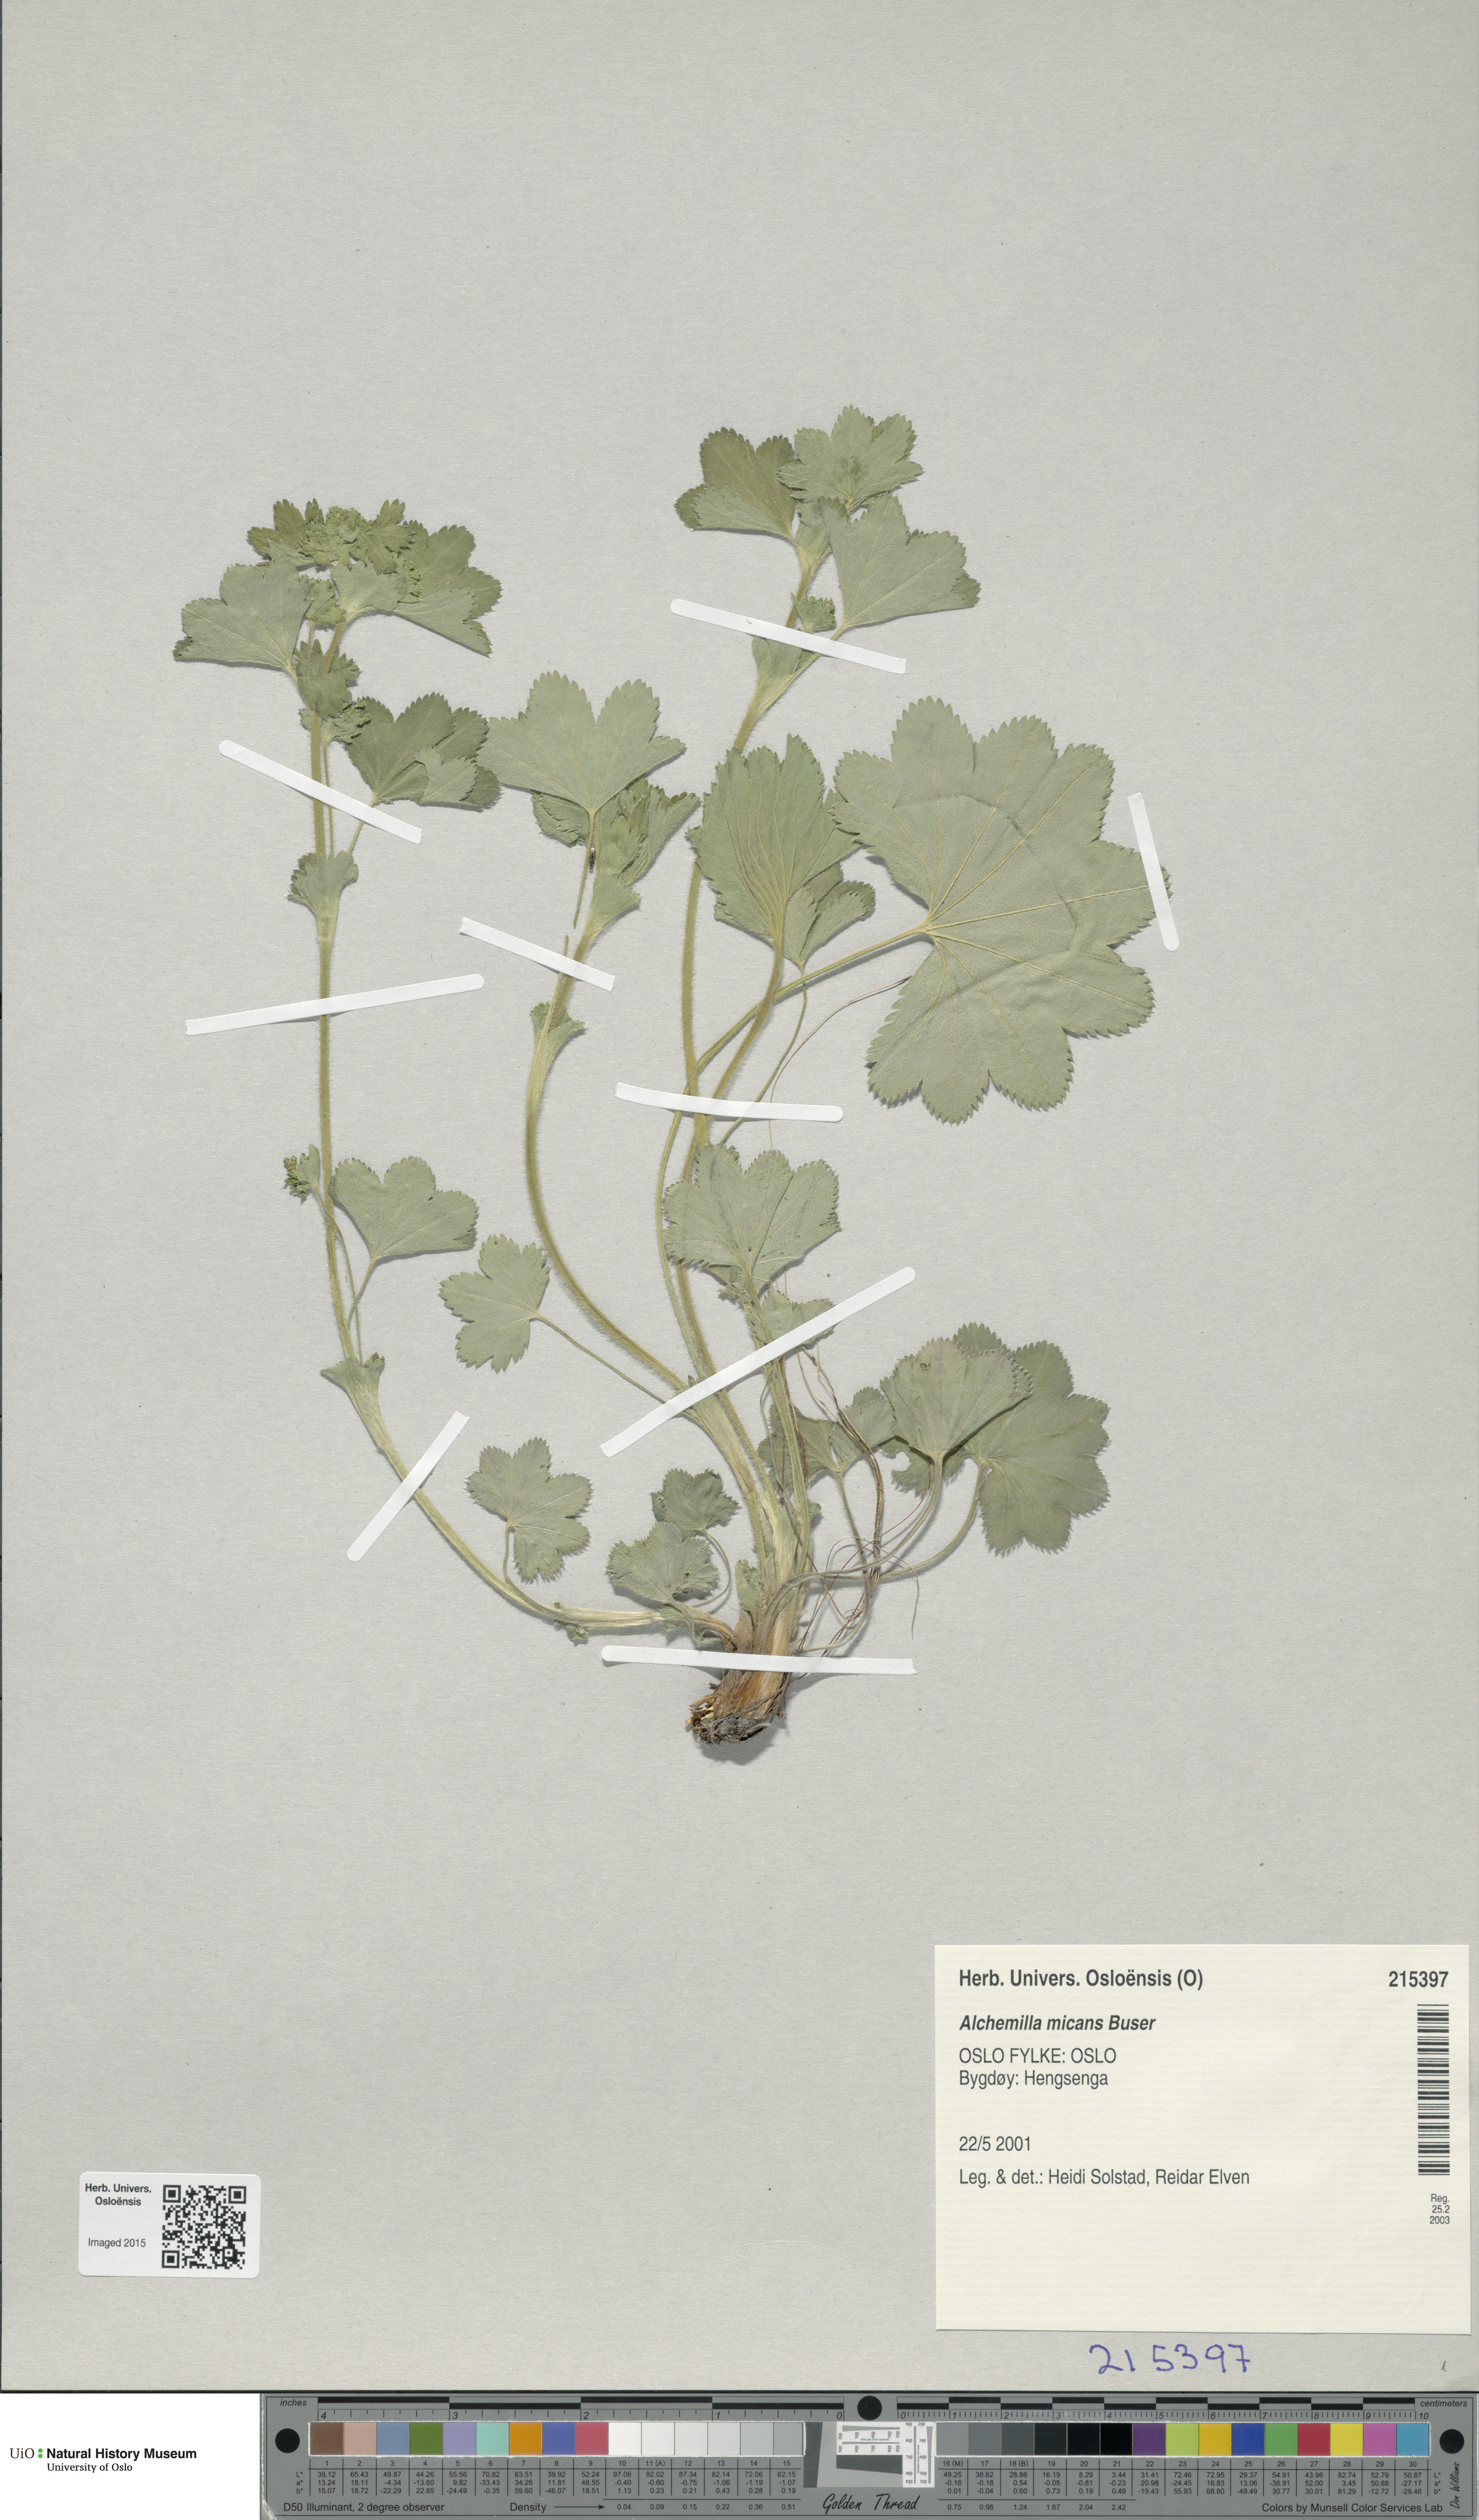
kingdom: Plantae
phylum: Tracheophyta
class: Magnoliopsida
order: Rosales
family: Rosaceae
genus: Alchemilla
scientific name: Alchemilla micans
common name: Gleaming lady's mantle
